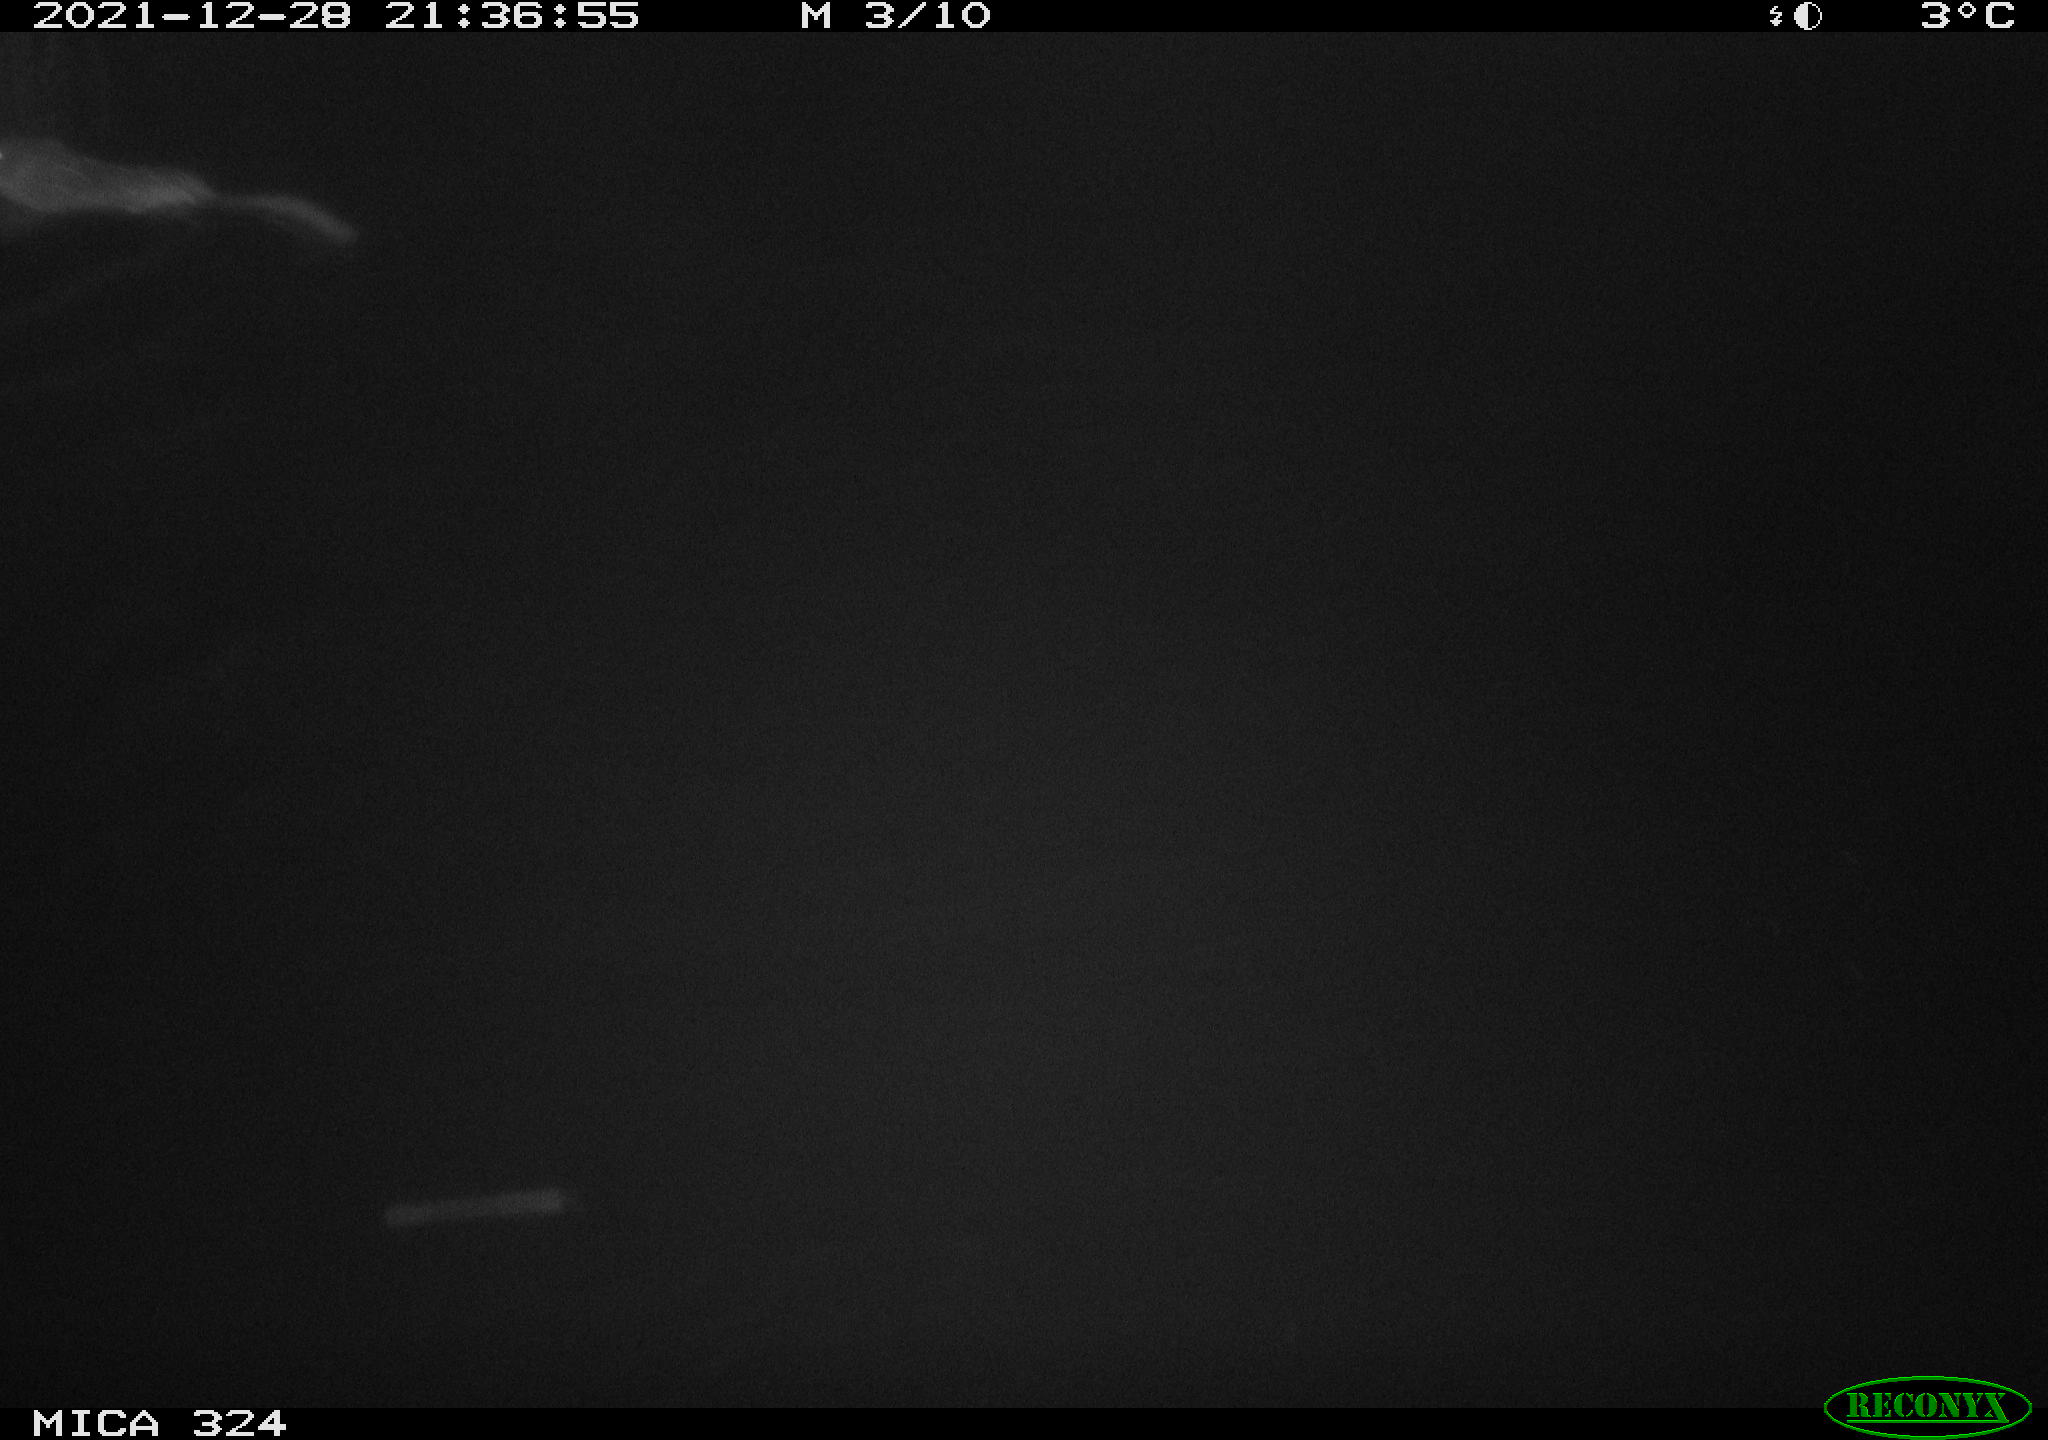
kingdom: Animalia
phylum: Chordata
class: Mammalia
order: Rodentia
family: Cricetidae
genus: Ondatra
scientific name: Ondatra zibethicus
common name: Muskrat
